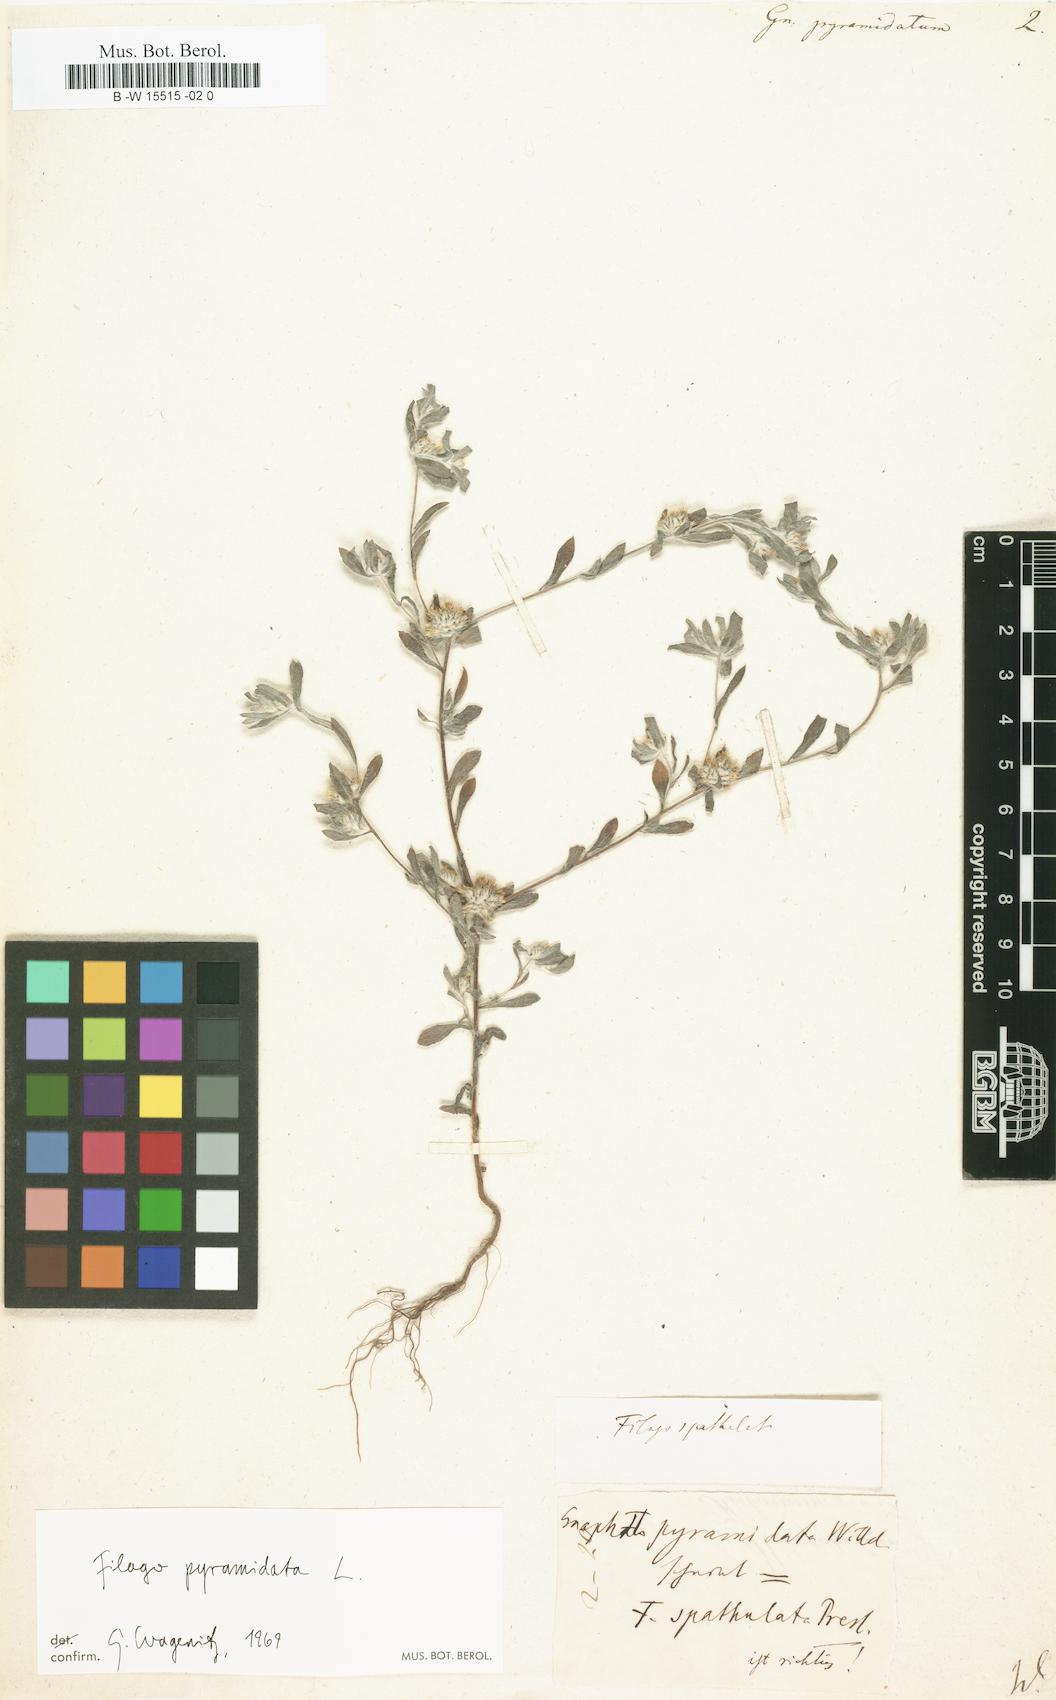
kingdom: Plantae
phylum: Tracheophyta
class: Magnoliopsida
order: Asterales
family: Asteraceae
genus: Filago
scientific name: Filago pyramidata
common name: Broad-leaved cudweed
